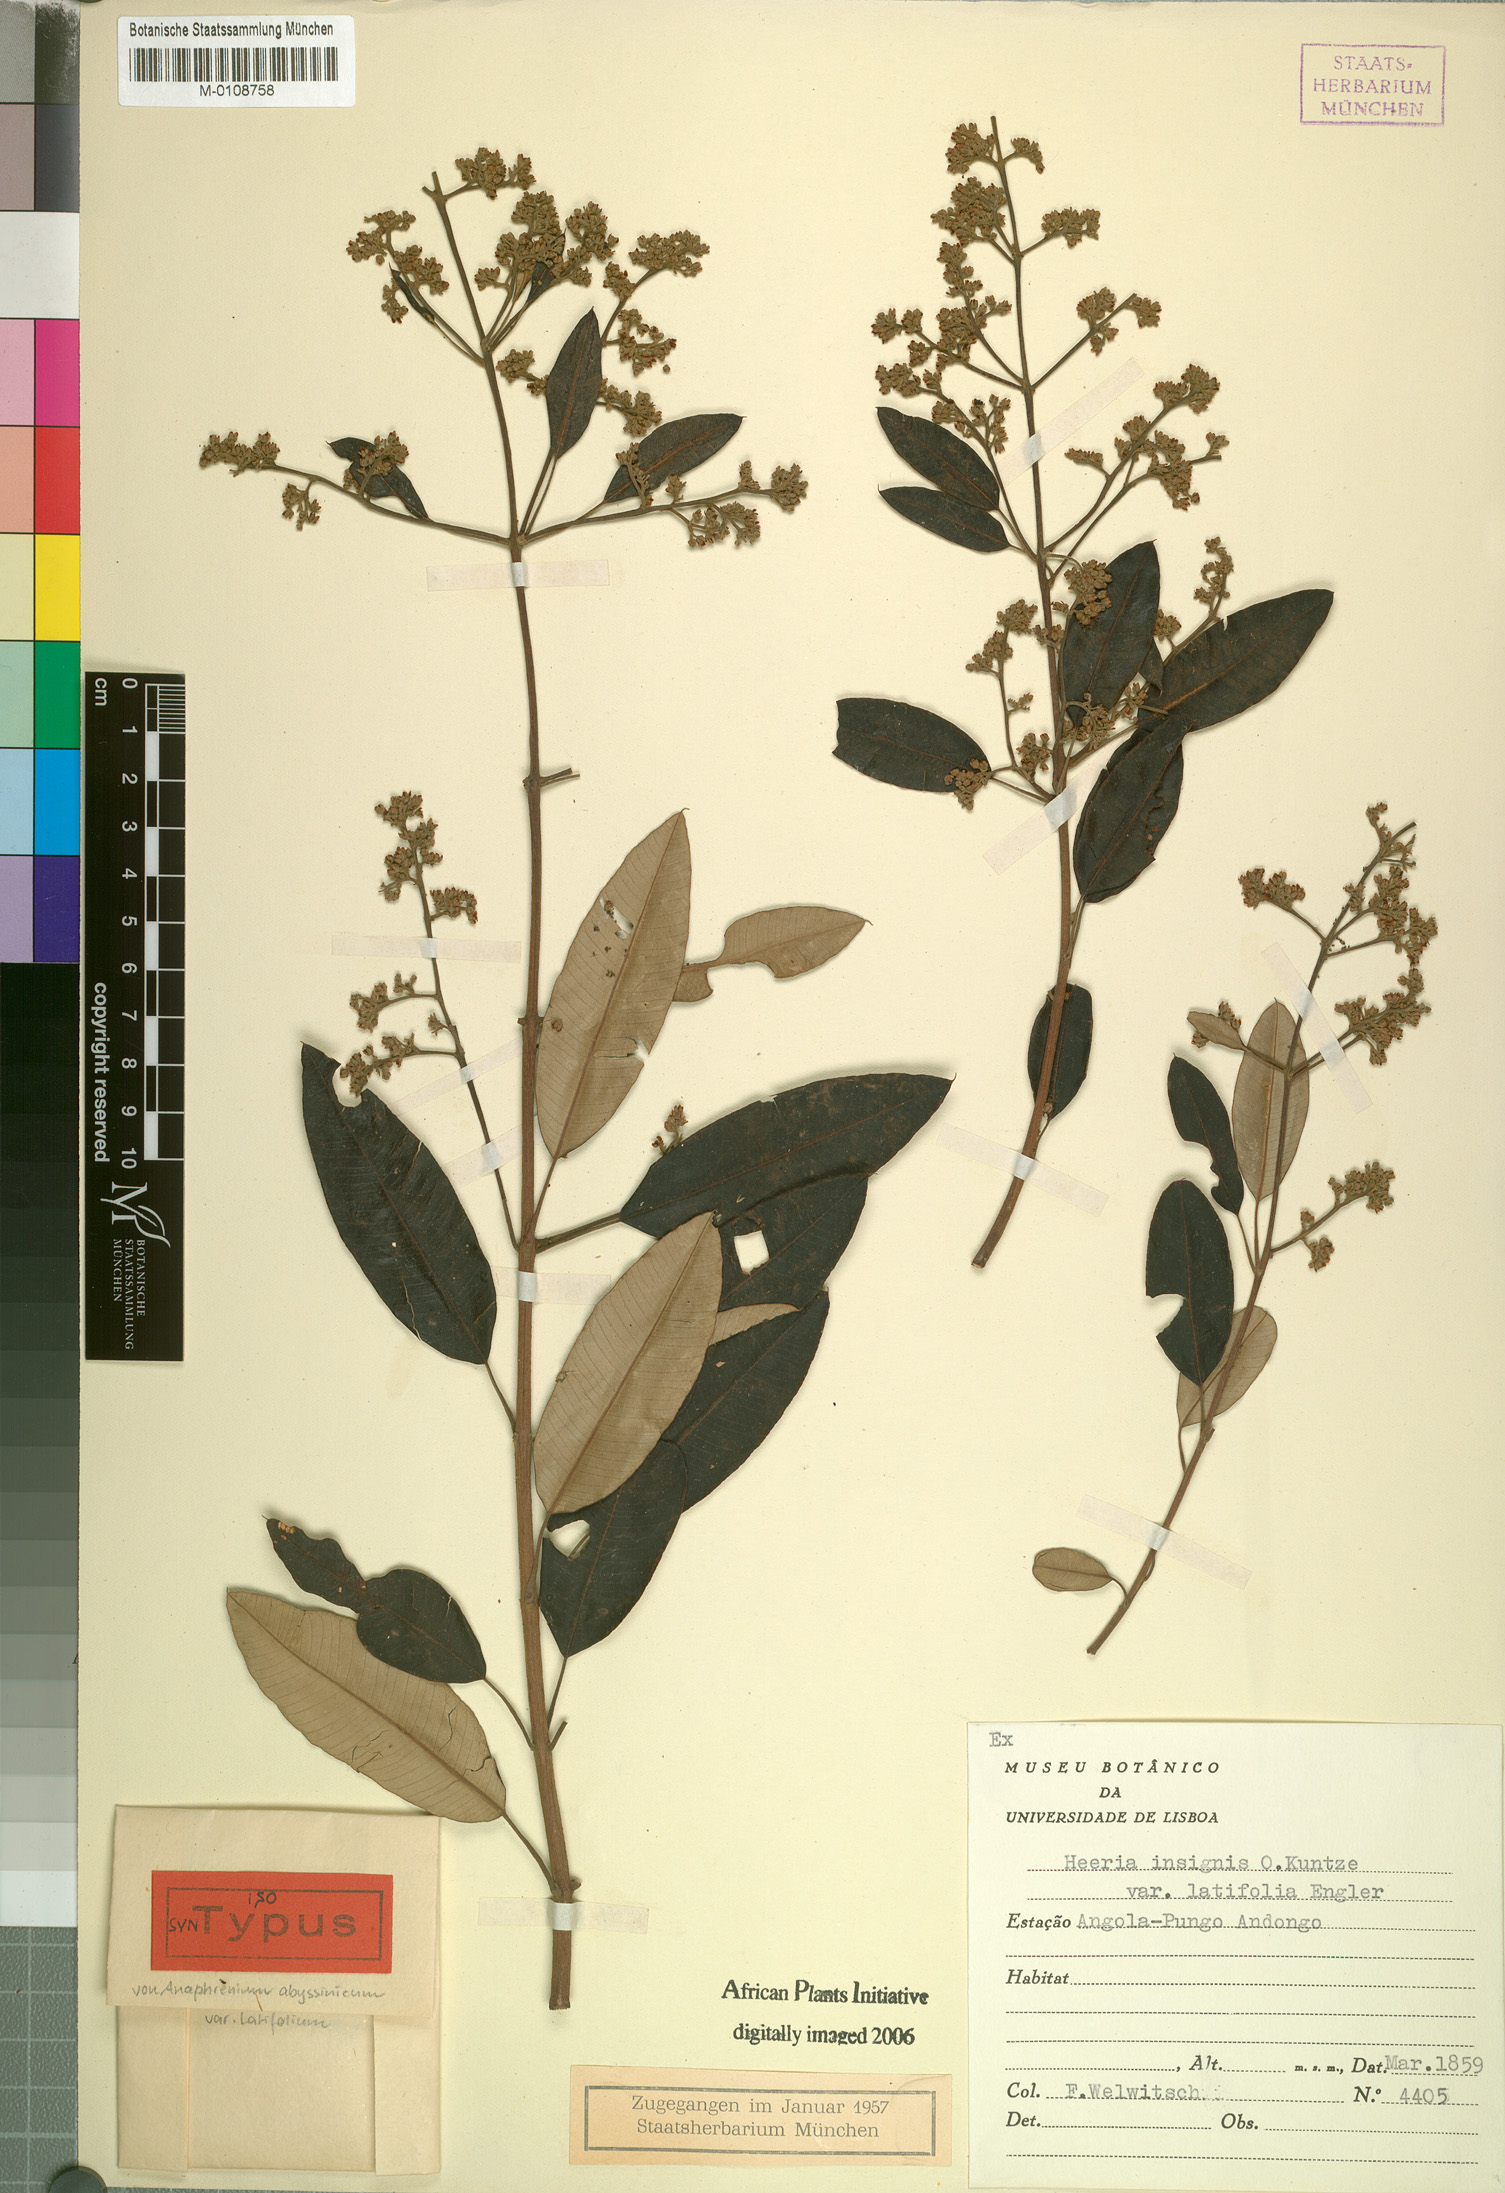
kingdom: Plantae
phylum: Tracheophyta
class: Magnoliopsida
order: Sapindales
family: Anacardiaceae
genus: Ozoroa
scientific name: Ozoroa insignis
